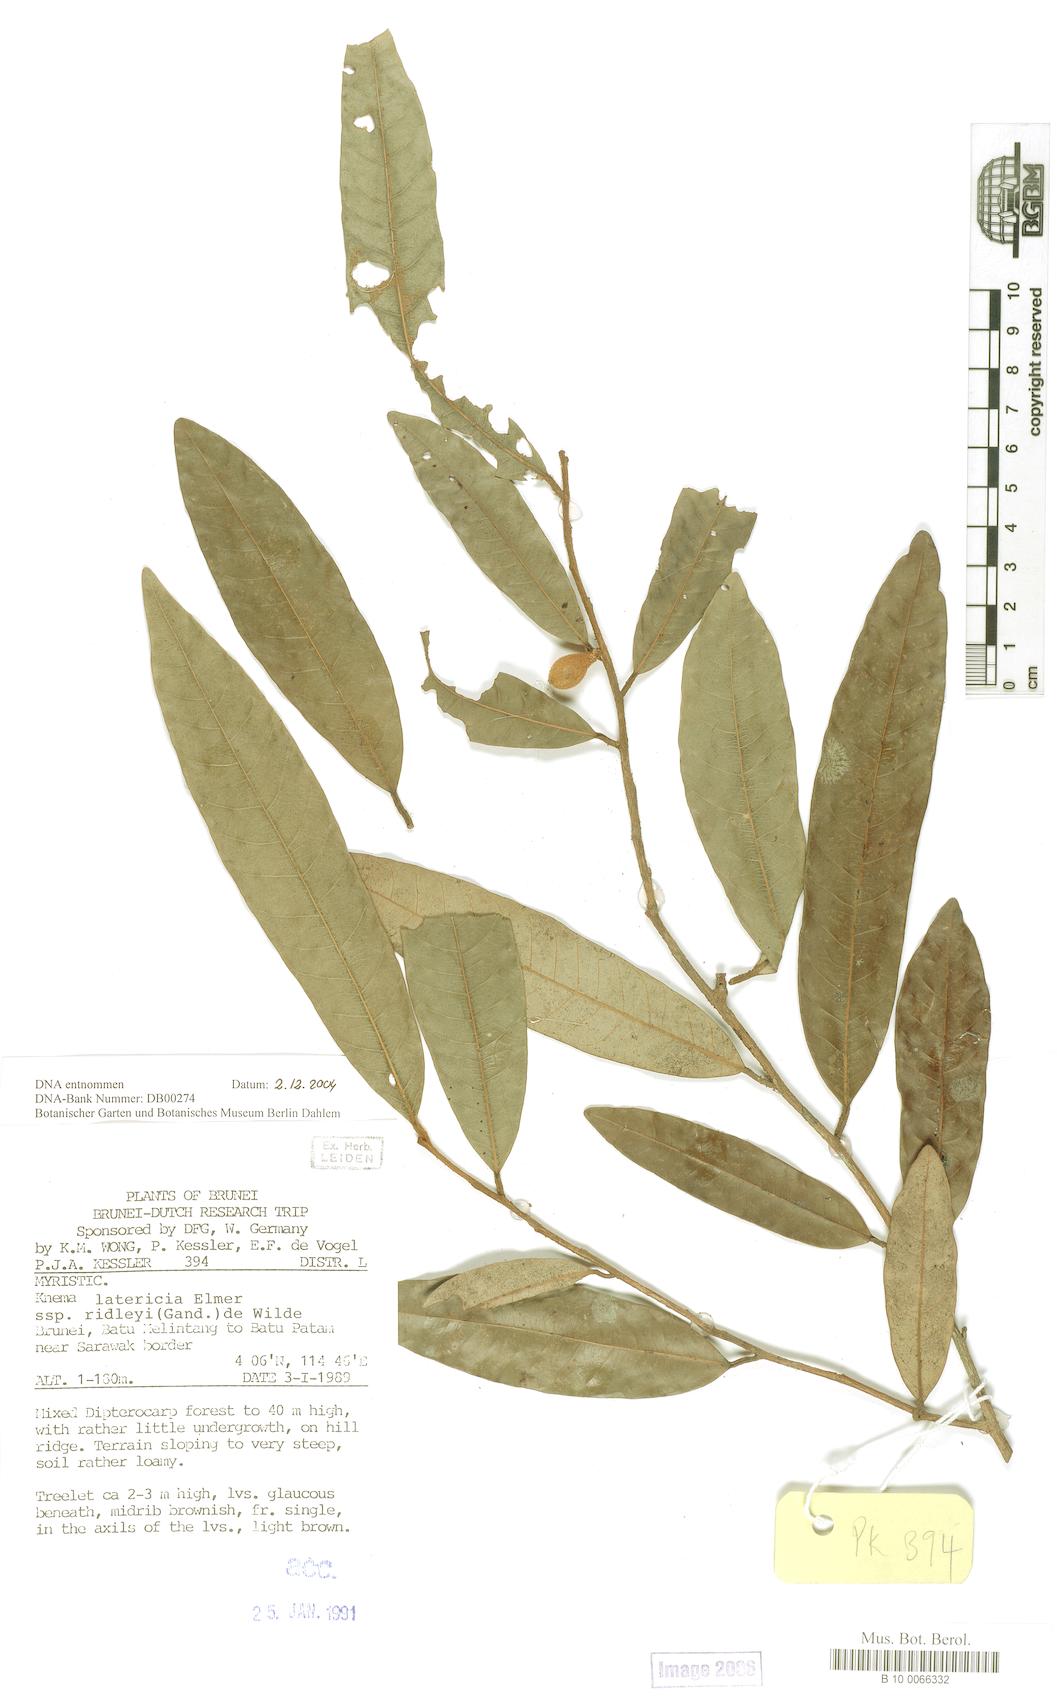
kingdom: Plantae
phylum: Tracheophyta
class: Magnoliopsida
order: Magnoliales
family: Myristicaceae
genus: Knema
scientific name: Knema latericia
